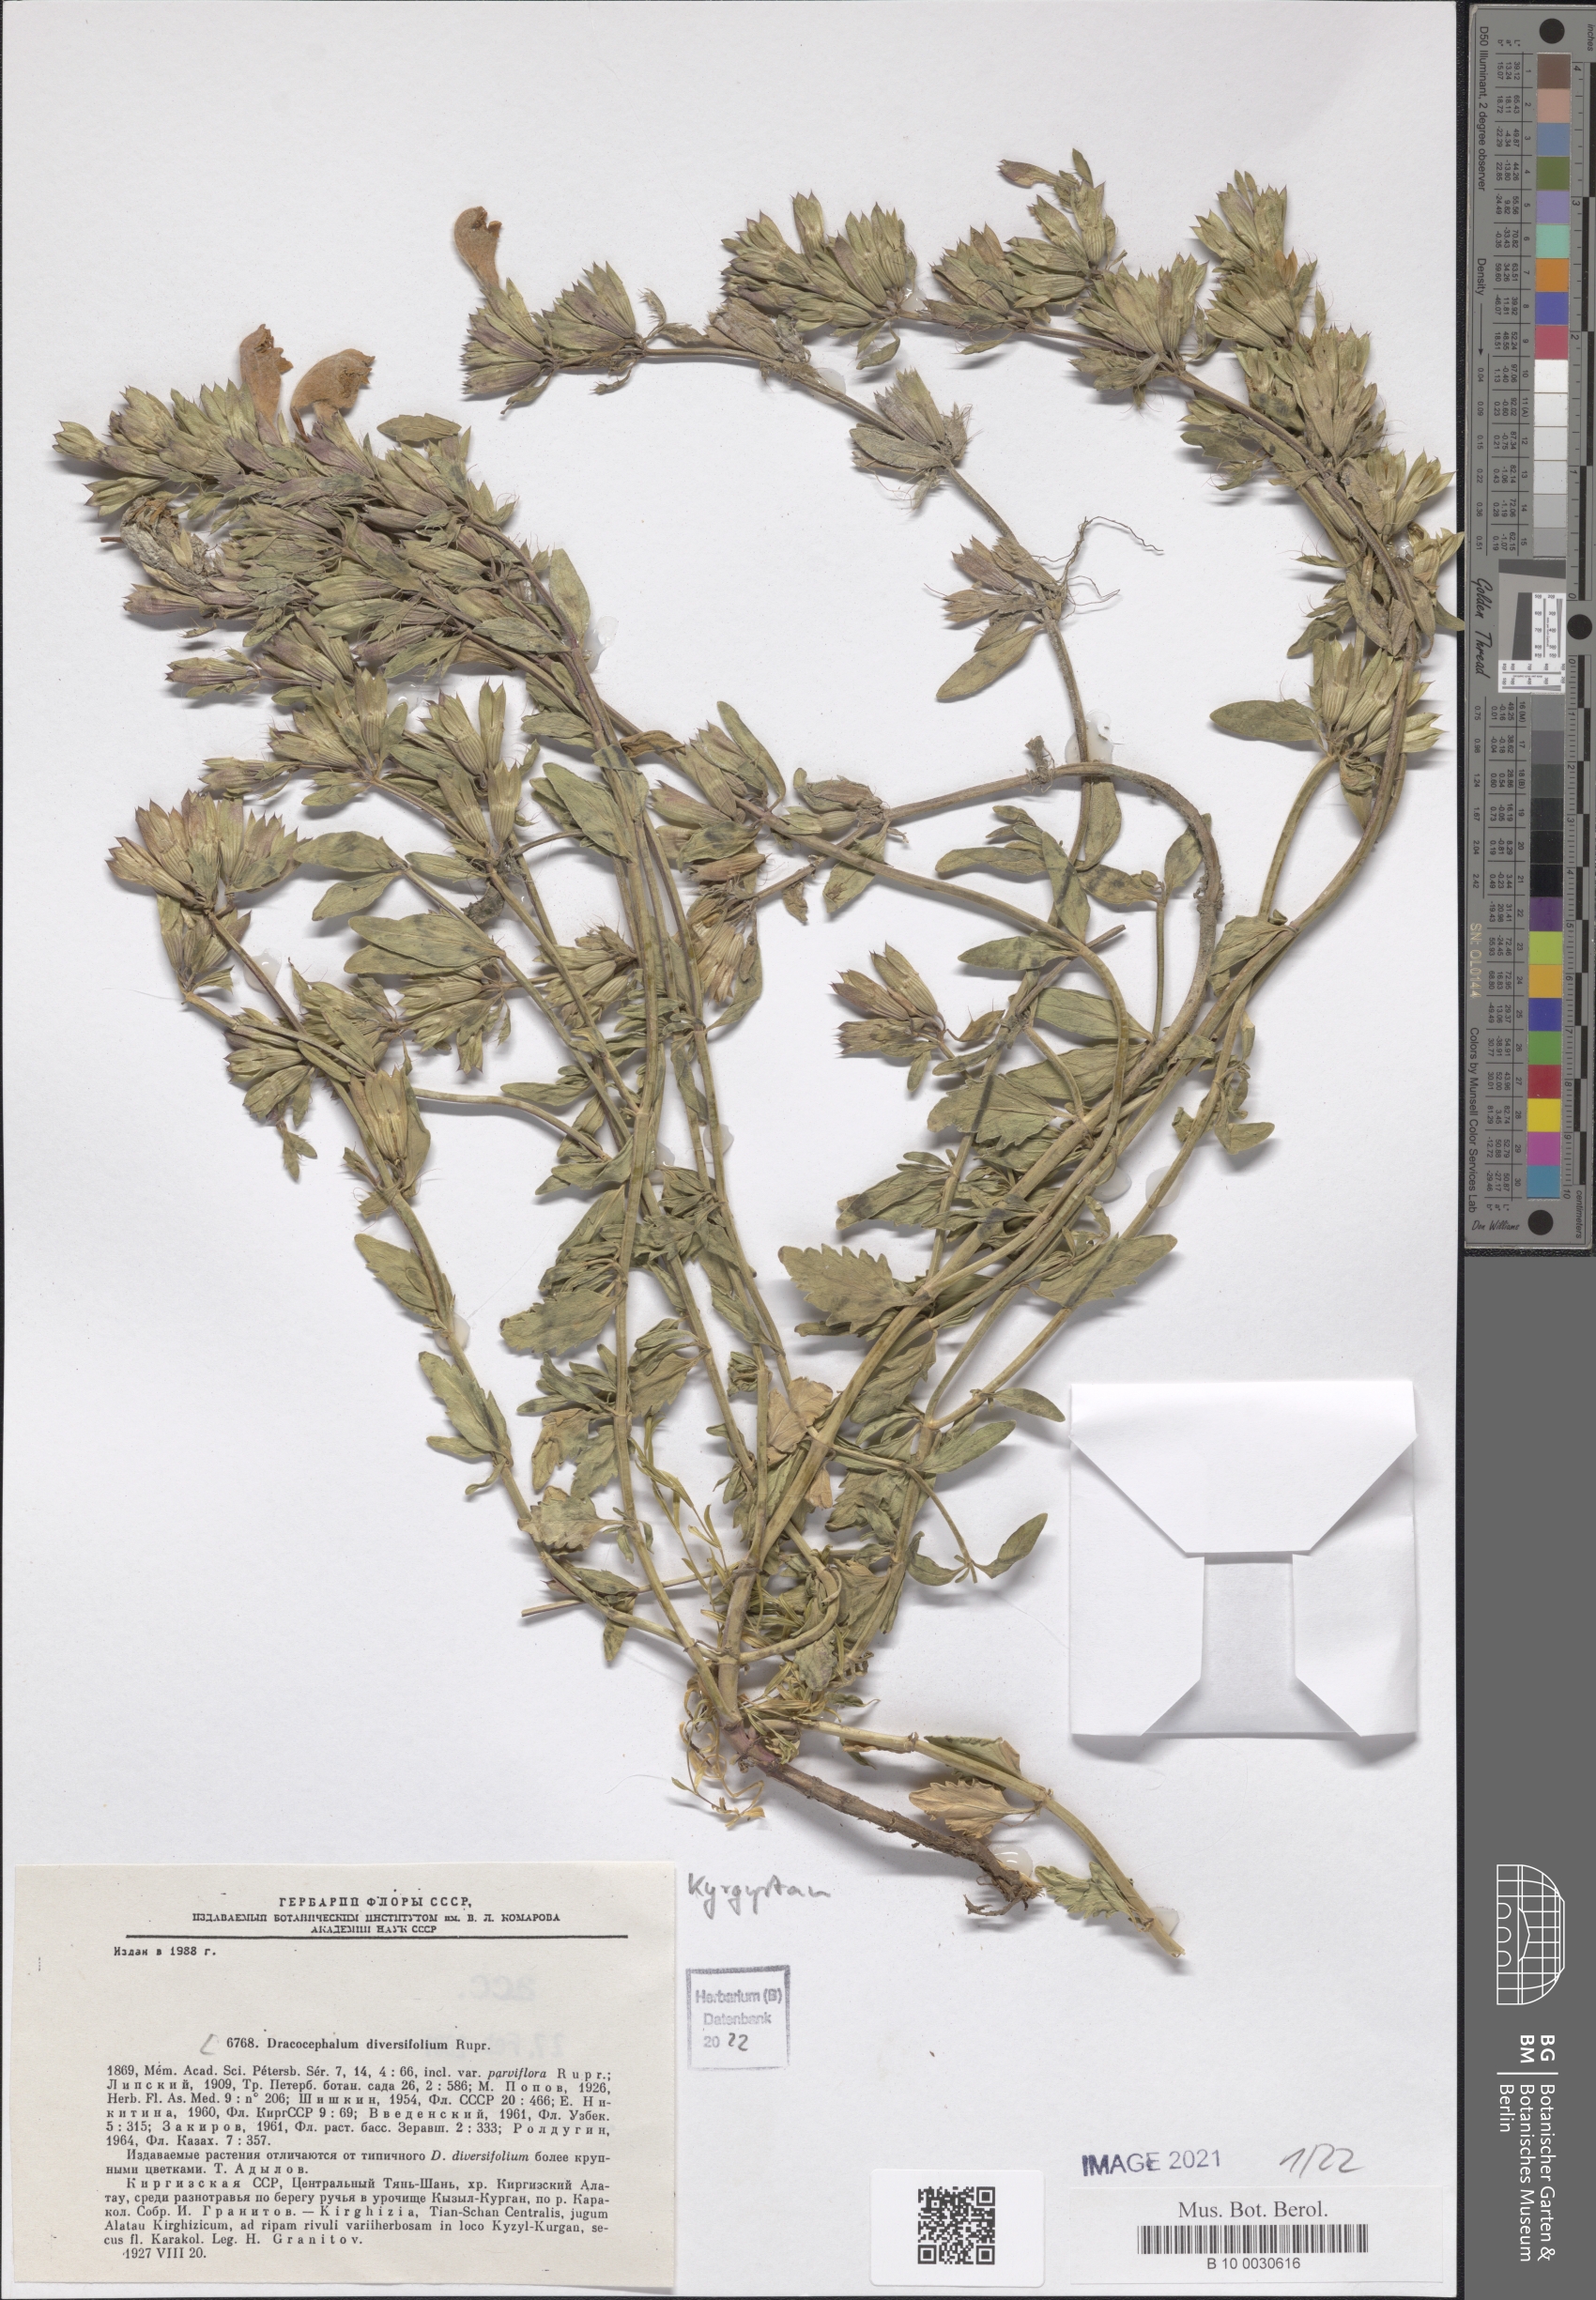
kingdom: Plantae
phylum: Tracheophyta
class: Magnoliopsida
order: Lamiales
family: Lamiaceae
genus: Dracocephalum
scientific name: Dracocephalum diversifolium
